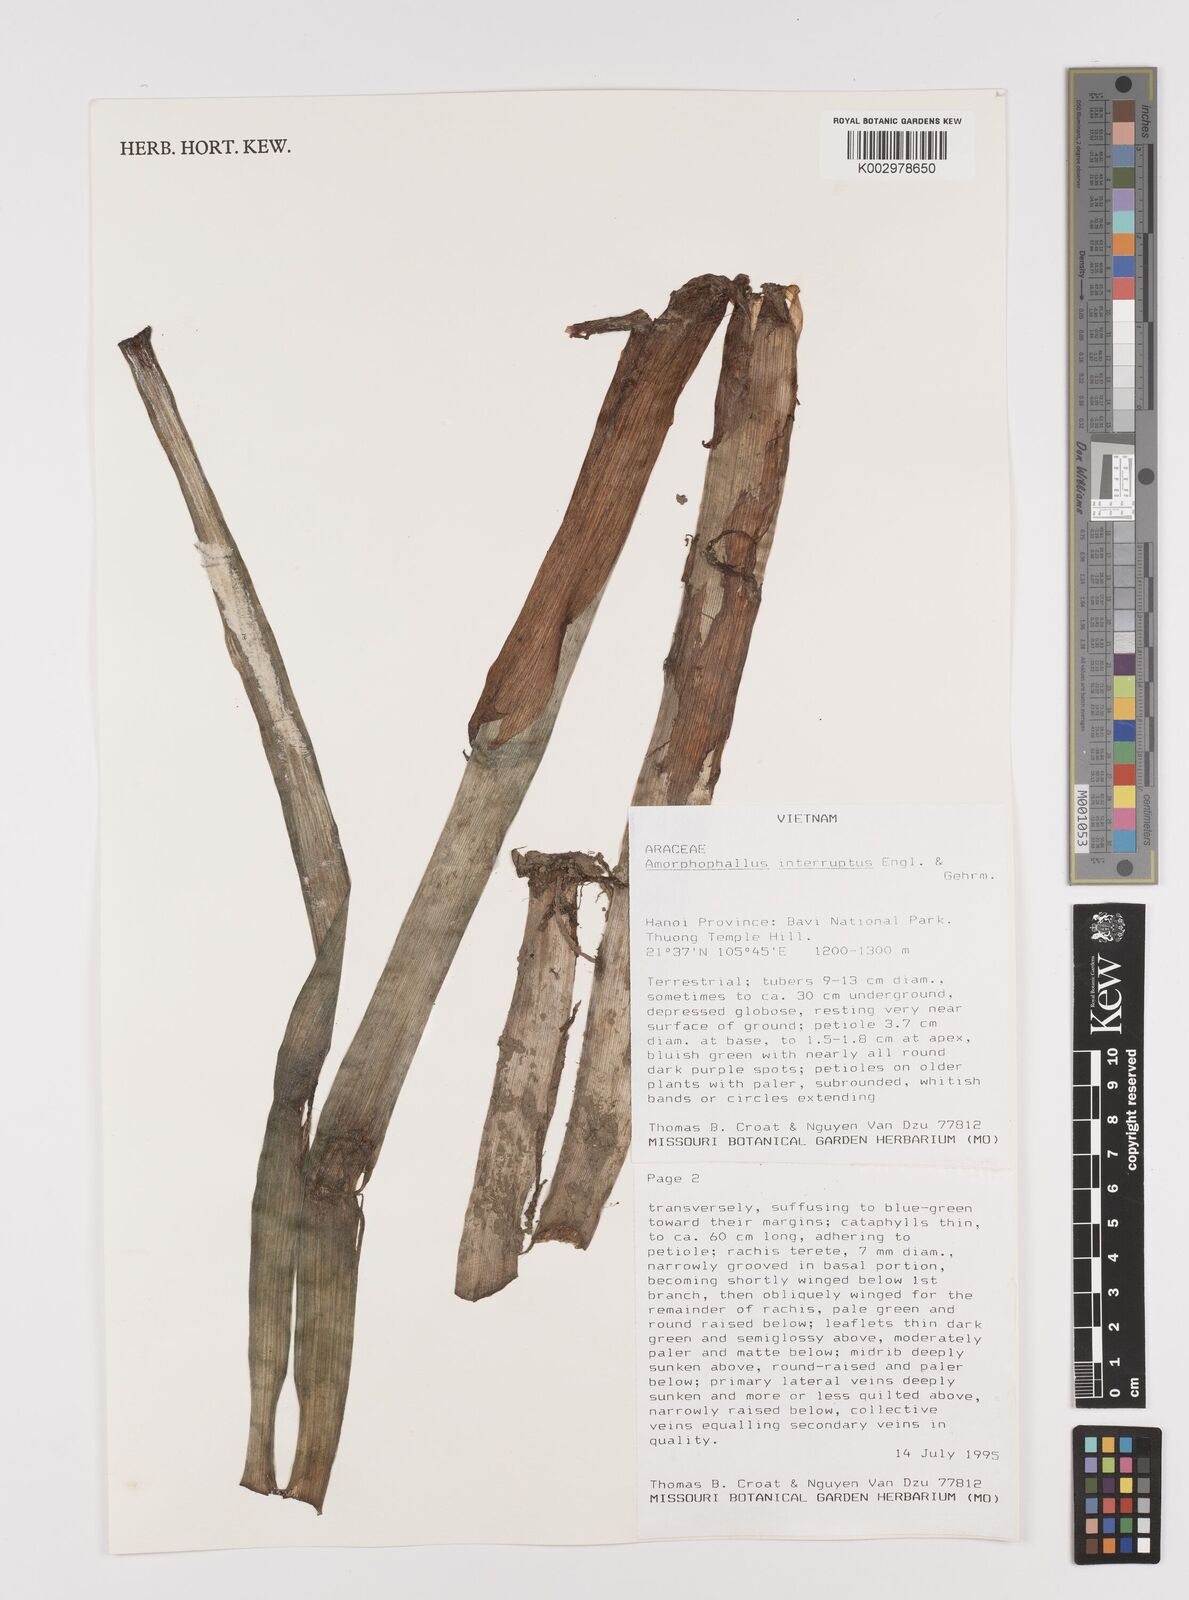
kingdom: Plantae
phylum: Tracheophyta
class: Liliopsida
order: Alismatales
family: Araceae
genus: Amorphophallus
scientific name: Amorphophallus interruptus
